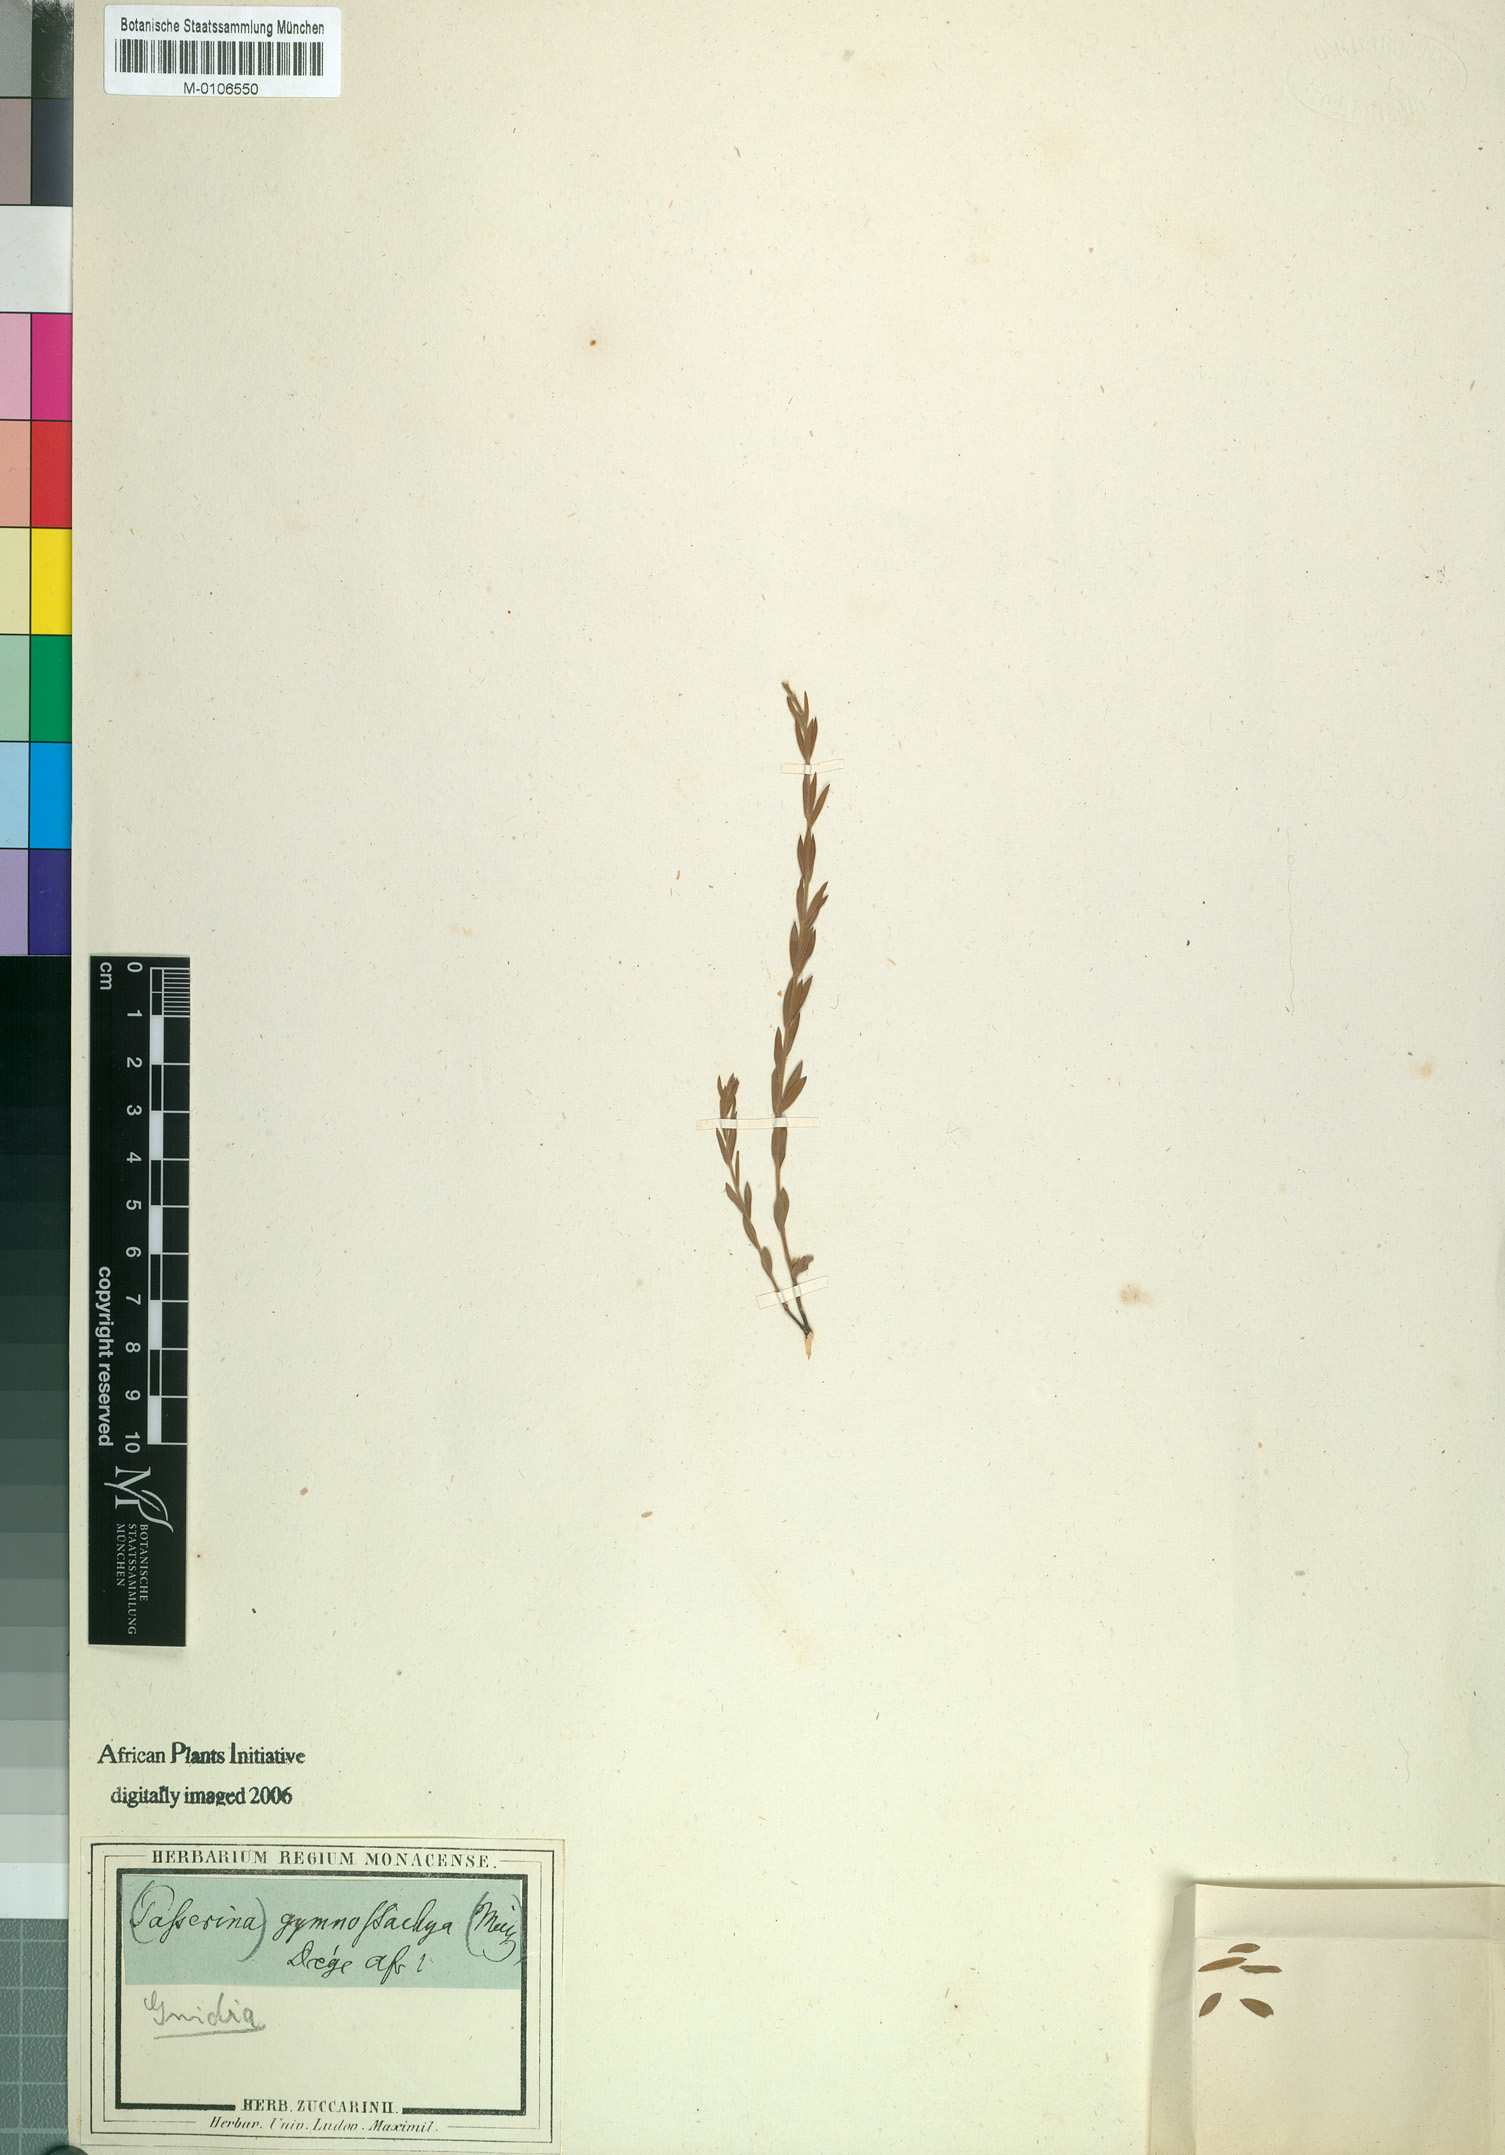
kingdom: Plantae
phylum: Tracheophyta
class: Magnoliopsida
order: Malvales
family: Thymelaeaceae
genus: Gnidia
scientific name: Gnidia gymnostachya
